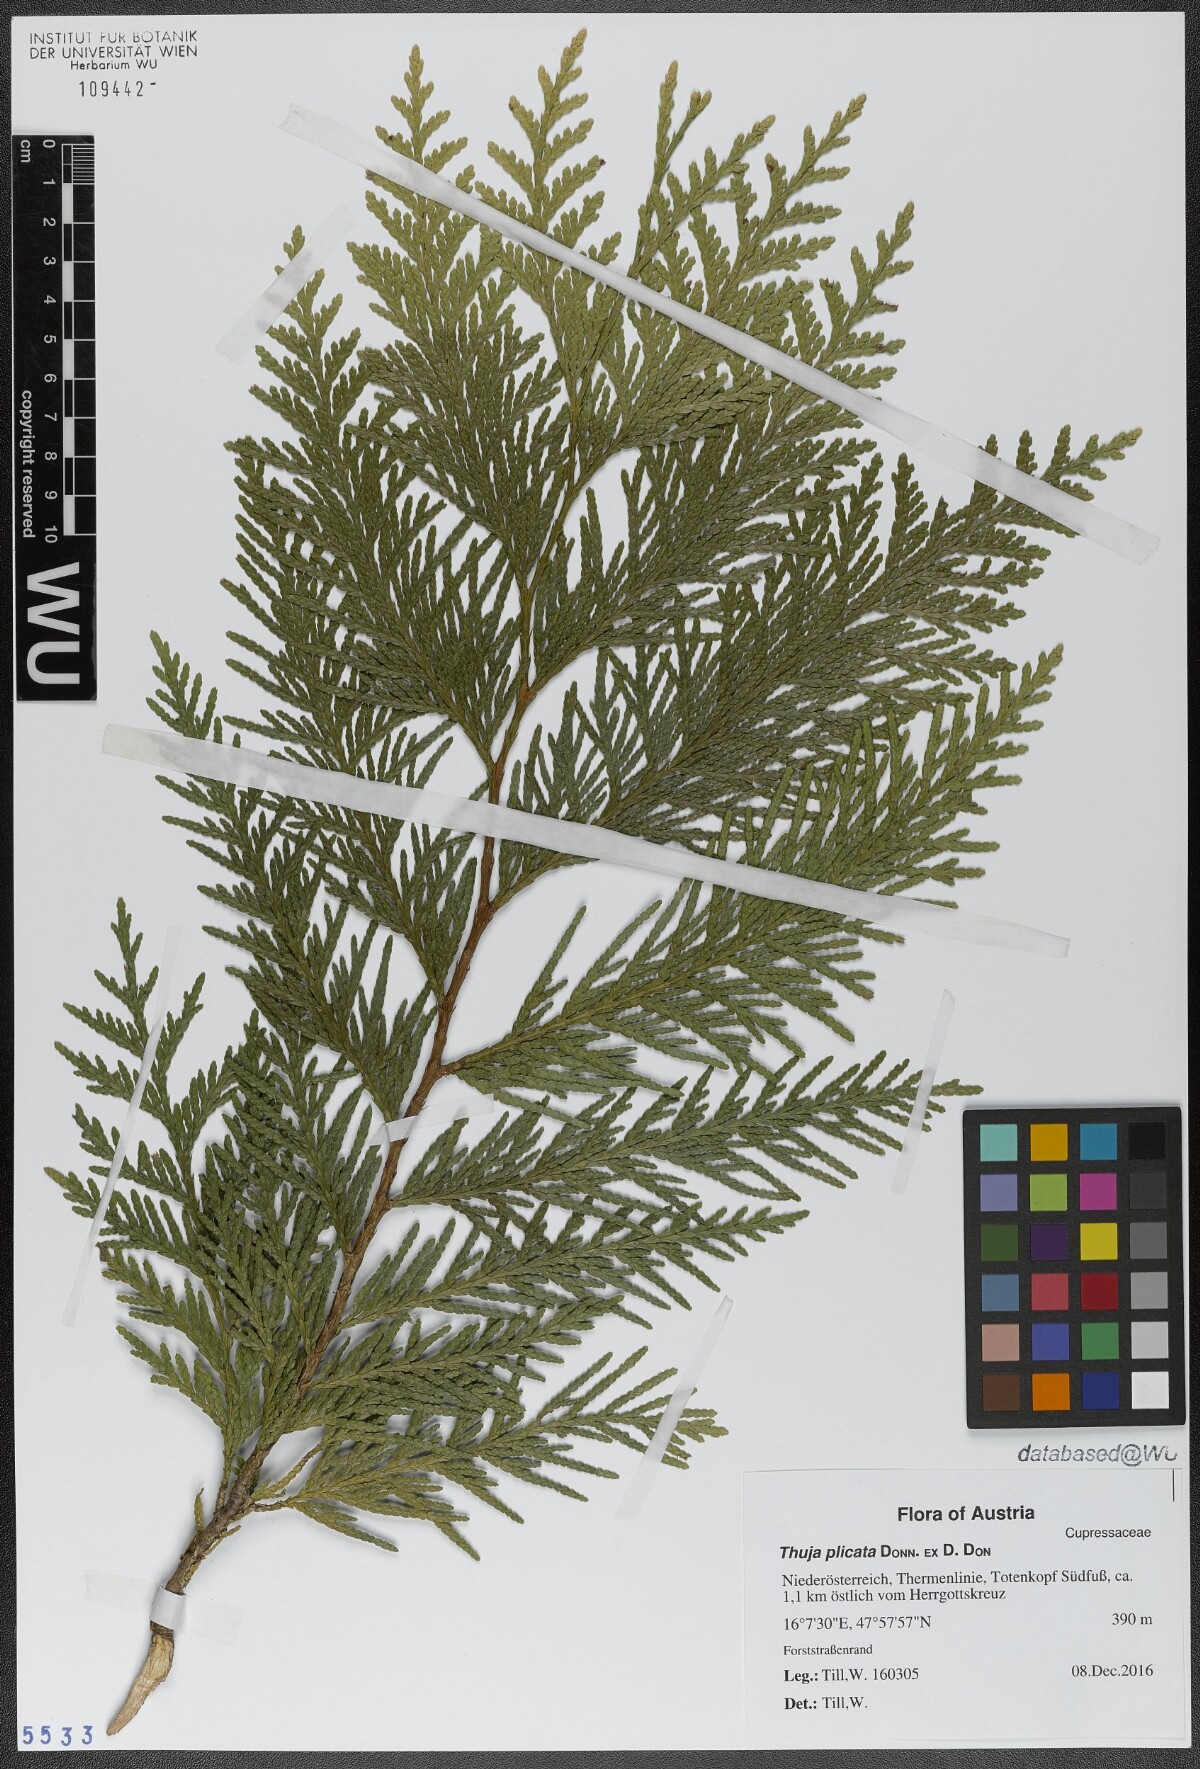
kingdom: Plantae
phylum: Tracheophyta
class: Pinopsida
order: Pinales
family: Cupressaceae
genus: Thuja
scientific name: Thuja plicata
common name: Western red-cedar
